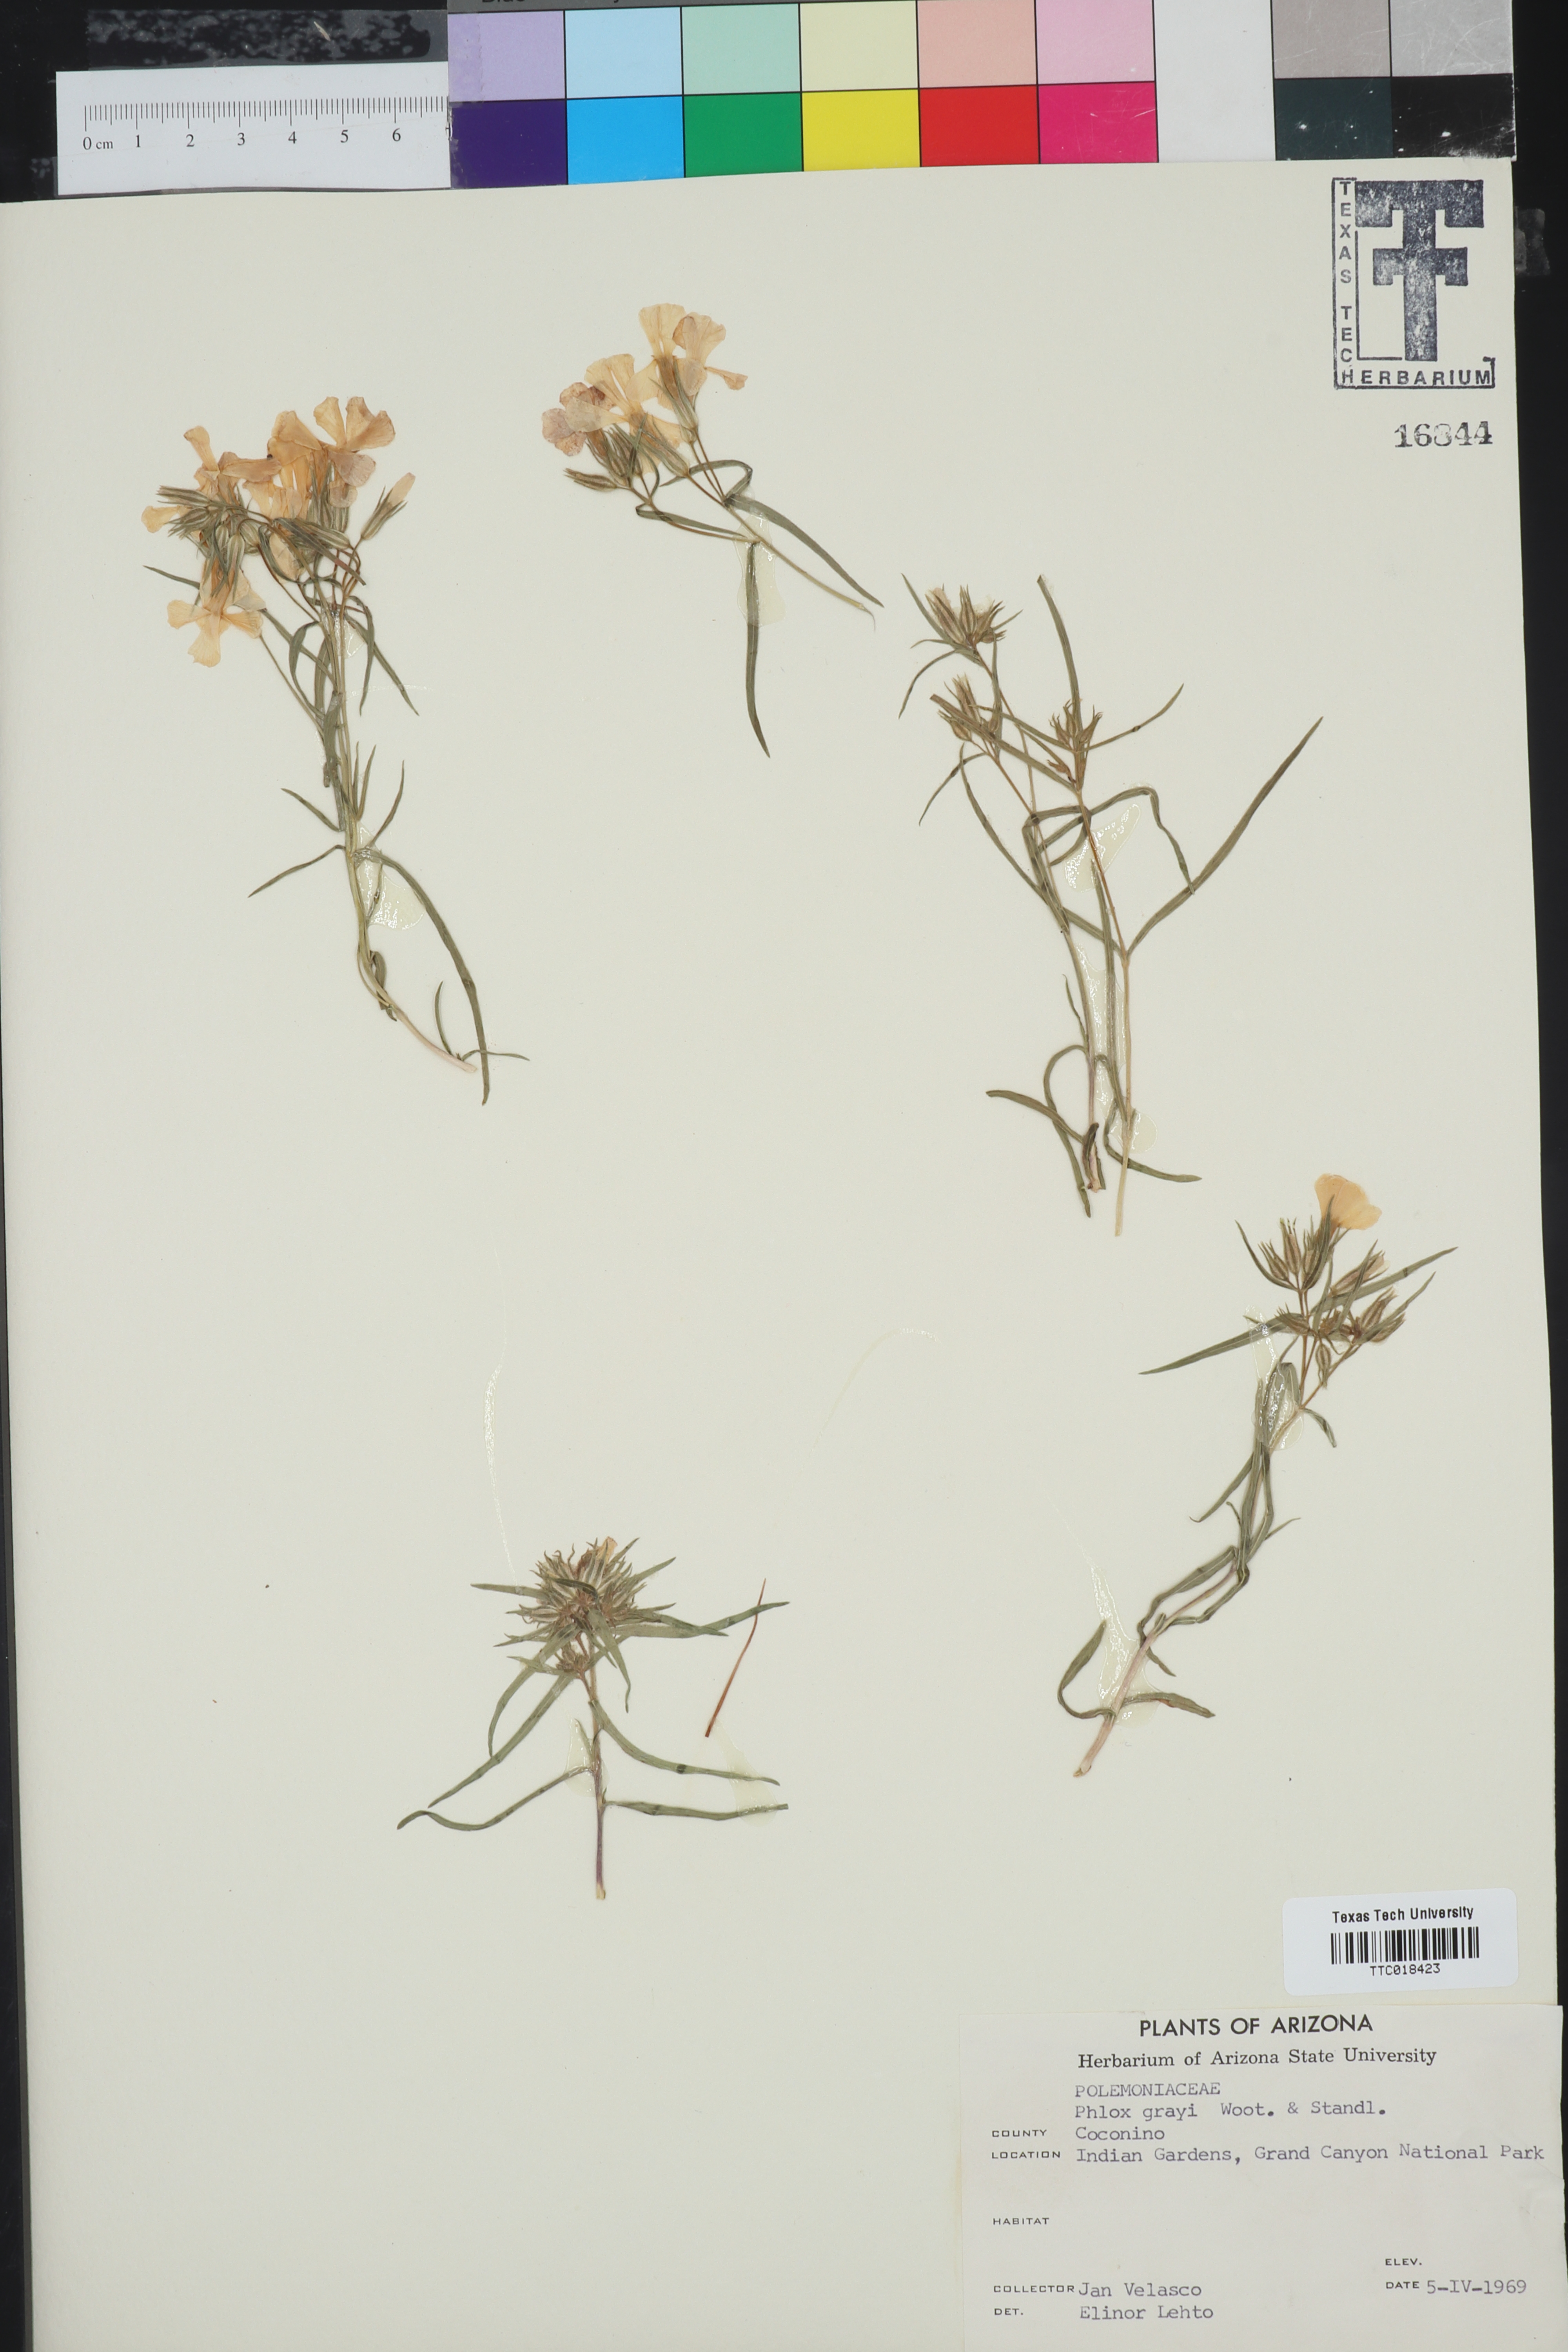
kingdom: Plantae
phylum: Tracheophyta
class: Magnoliopsida
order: Ericales
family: Polemoniaceae
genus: Phlox
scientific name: Phlox longifolia
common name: Longleaf phlox
